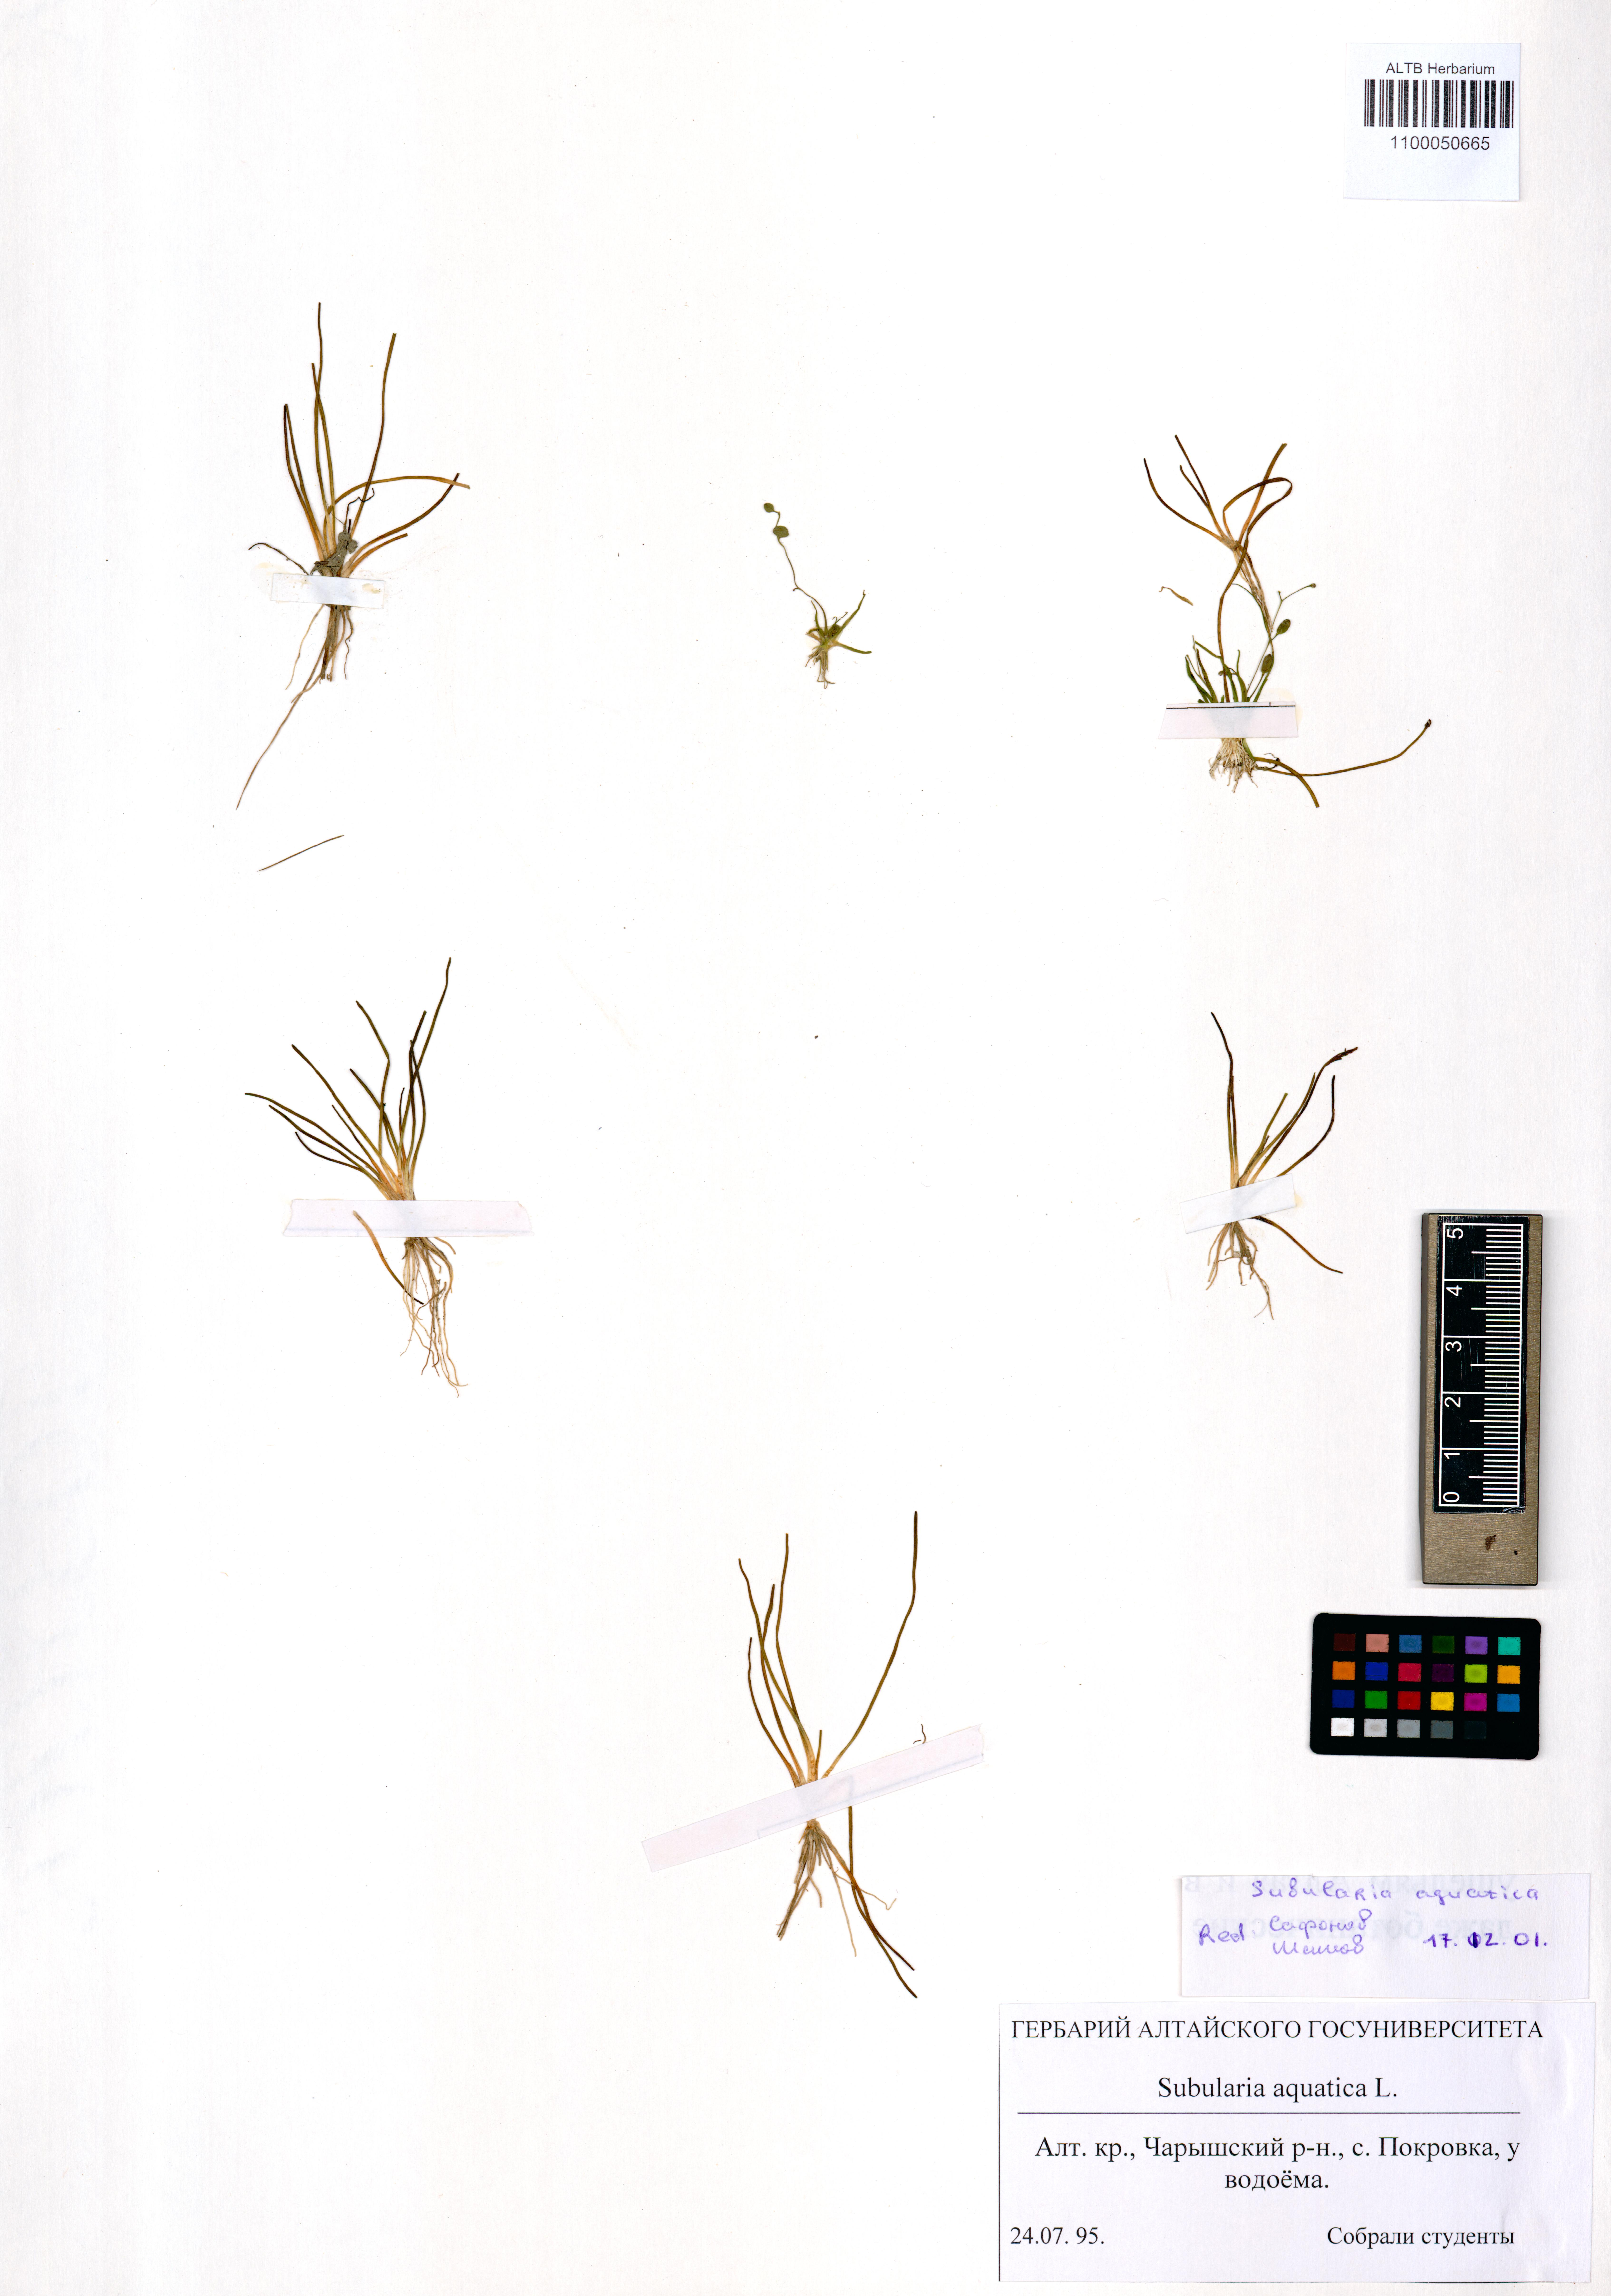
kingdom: Plantae
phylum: Tracheophyta
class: Magnoliopsida
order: Brassicales
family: Brassicaceae
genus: Subularia
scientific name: Subularia aquatica
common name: Awlwort
